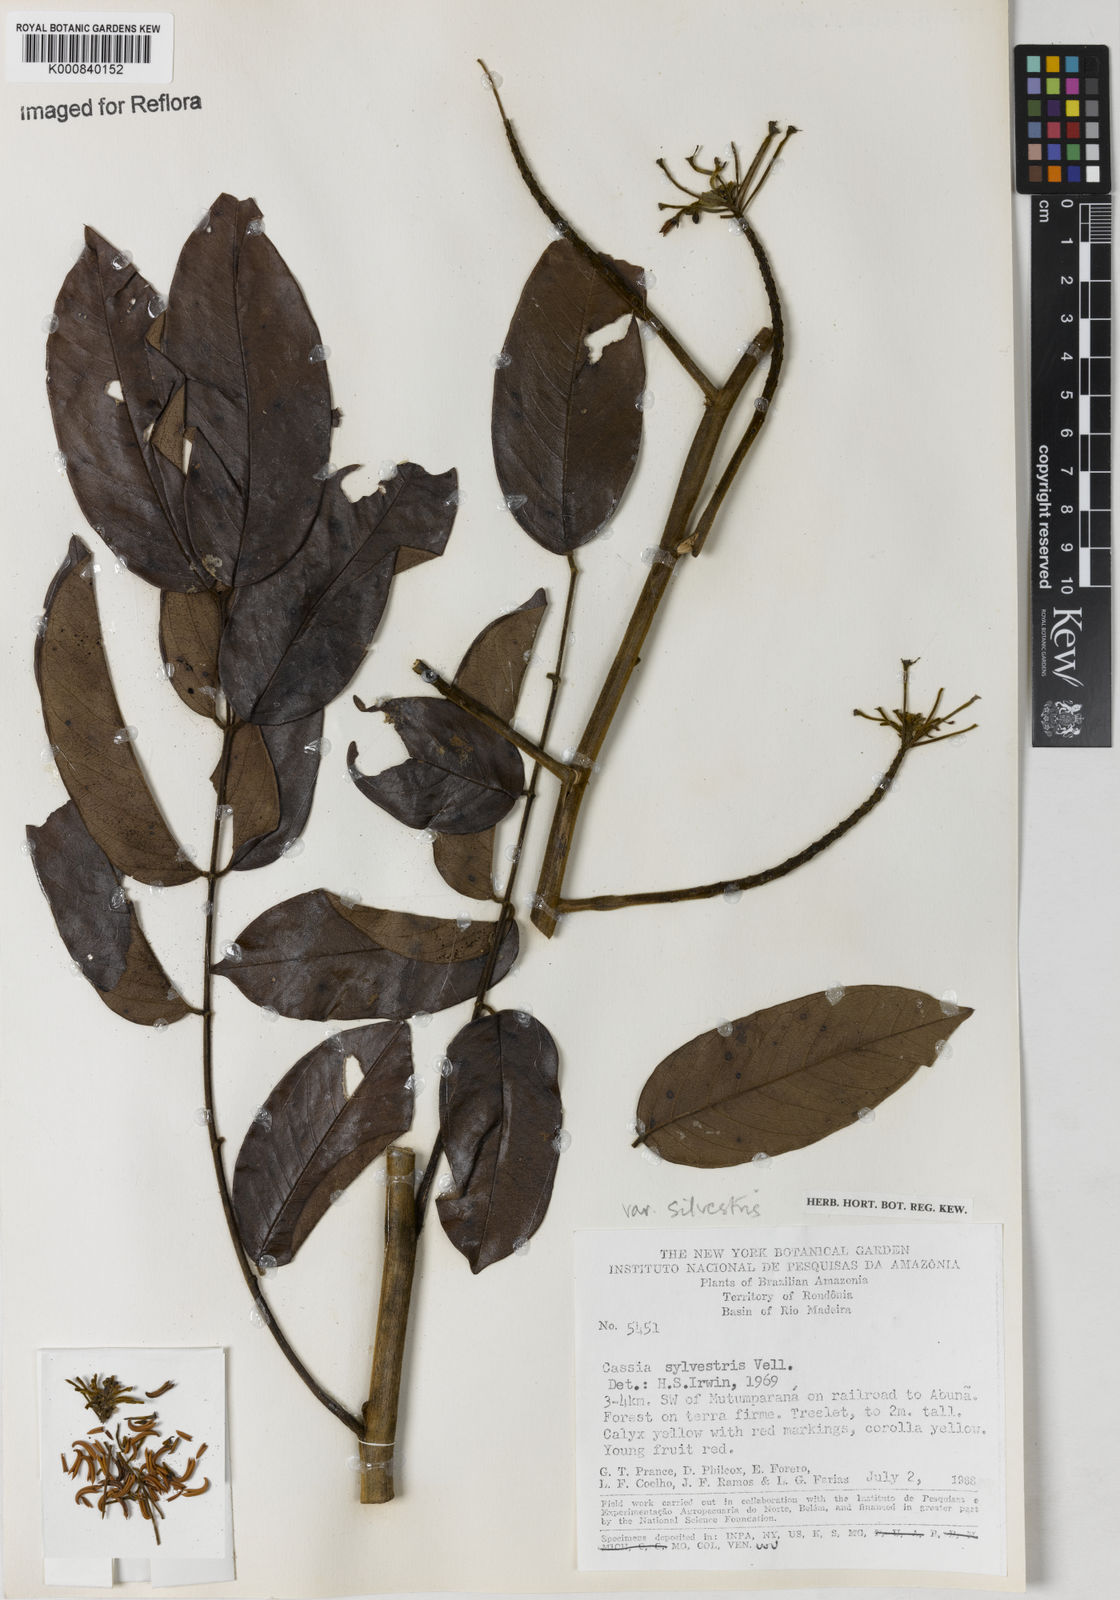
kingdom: Plantae
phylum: Tracheophyta
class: Magnoliopsida
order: Fabales
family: Fabaceae
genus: Senna
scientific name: Senna silvestris
